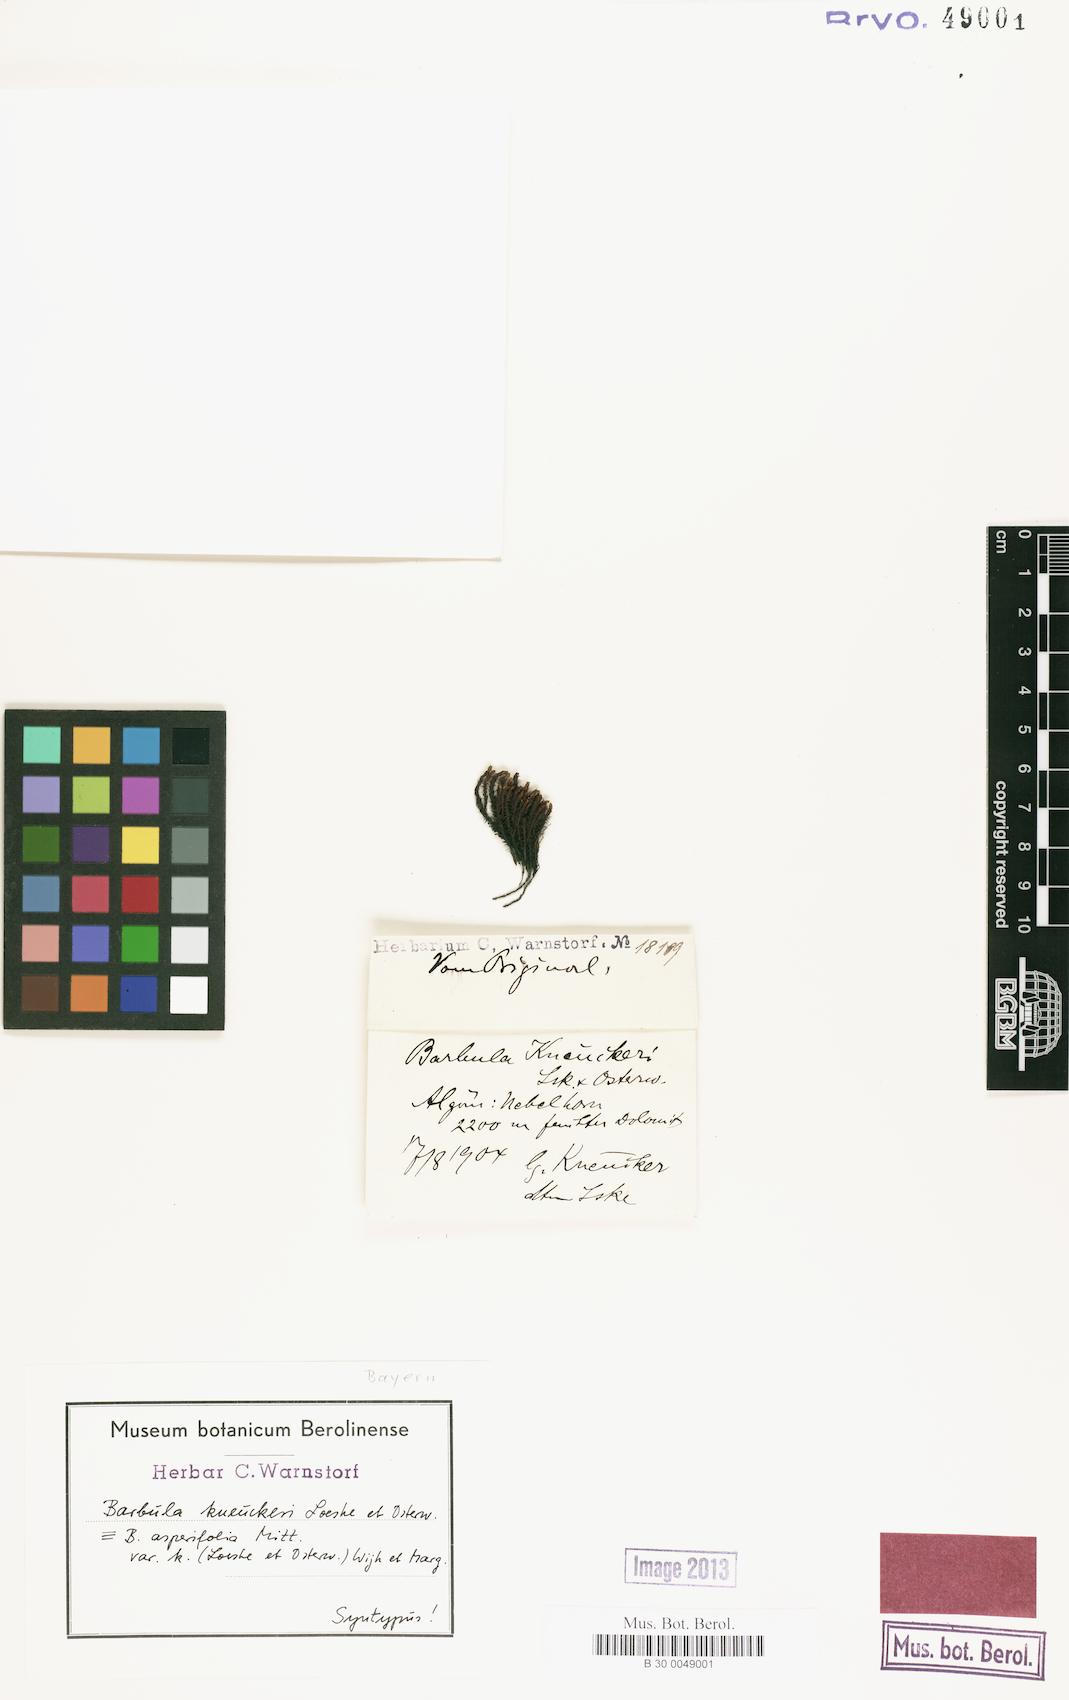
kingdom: Plantae
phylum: Bryophyta
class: Bryopsida
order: Pottiales
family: Pottiaceae
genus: Husnotiella
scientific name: Husnotiella asperifolia
